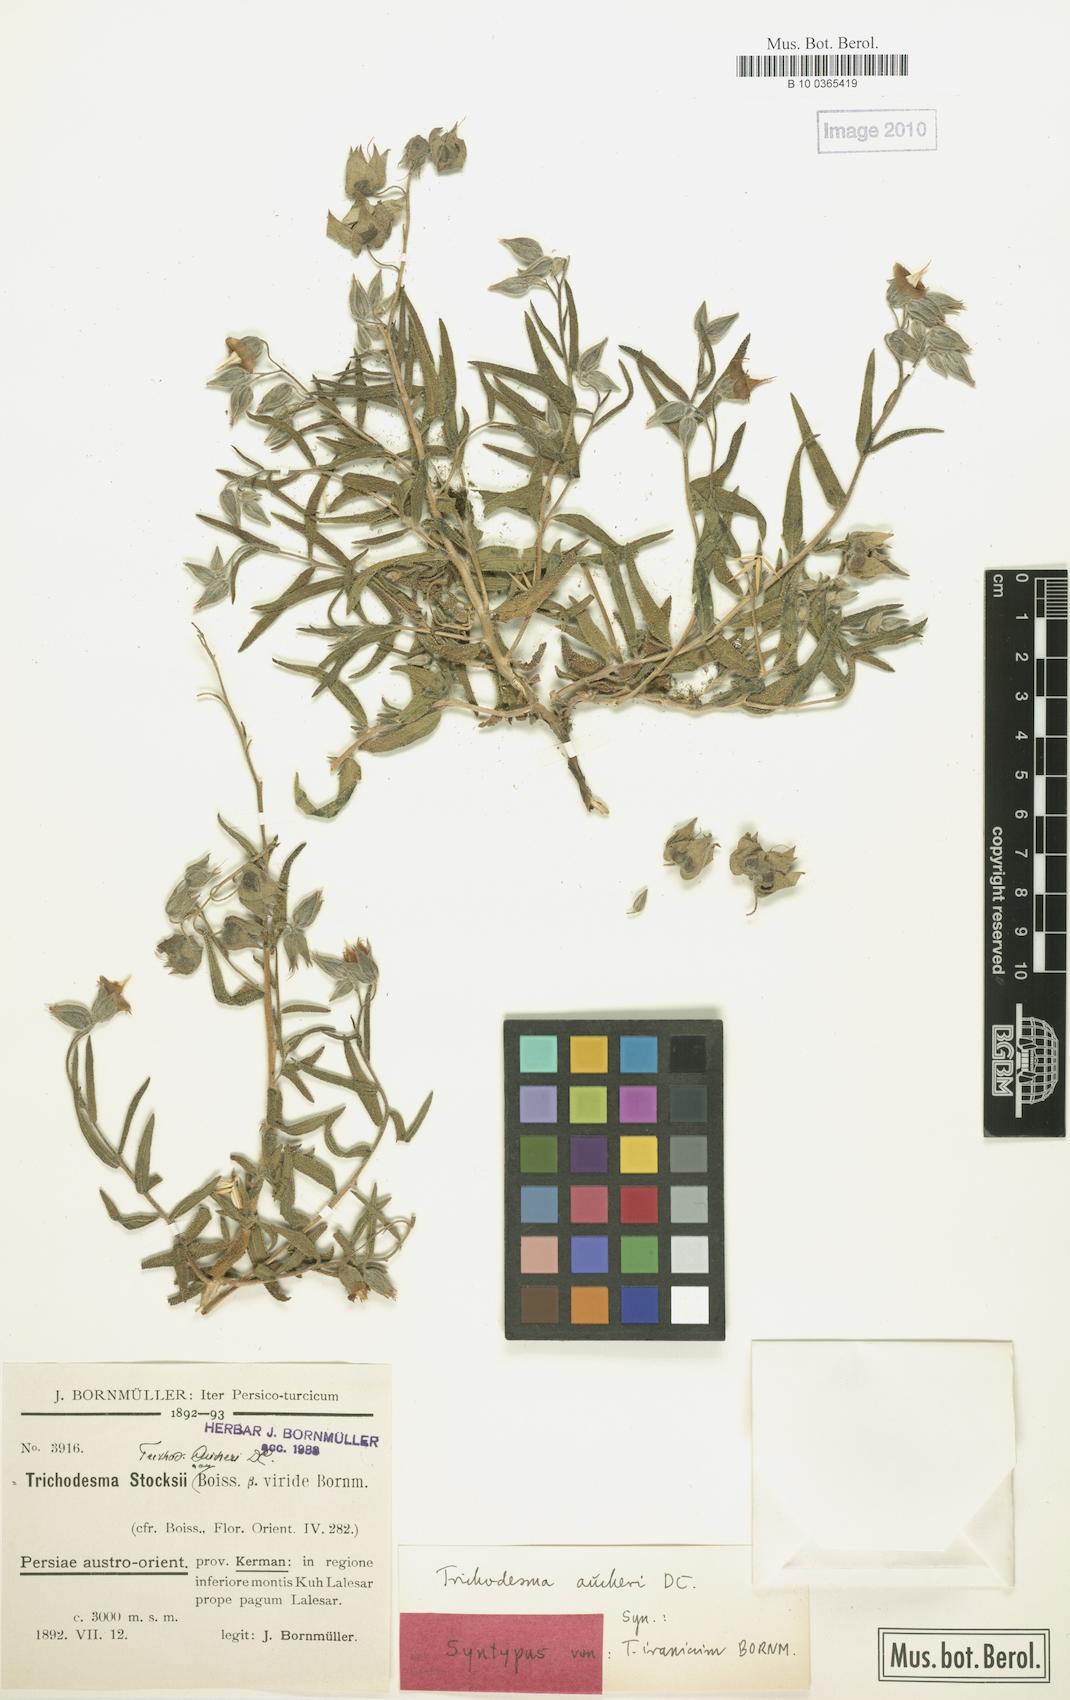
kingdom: Plantae
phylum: Tracheophyta
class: Magnoliopsida
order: Boraginales
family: Boraginaceae
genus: Trichodesma
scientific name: Trichodesma aucheri
